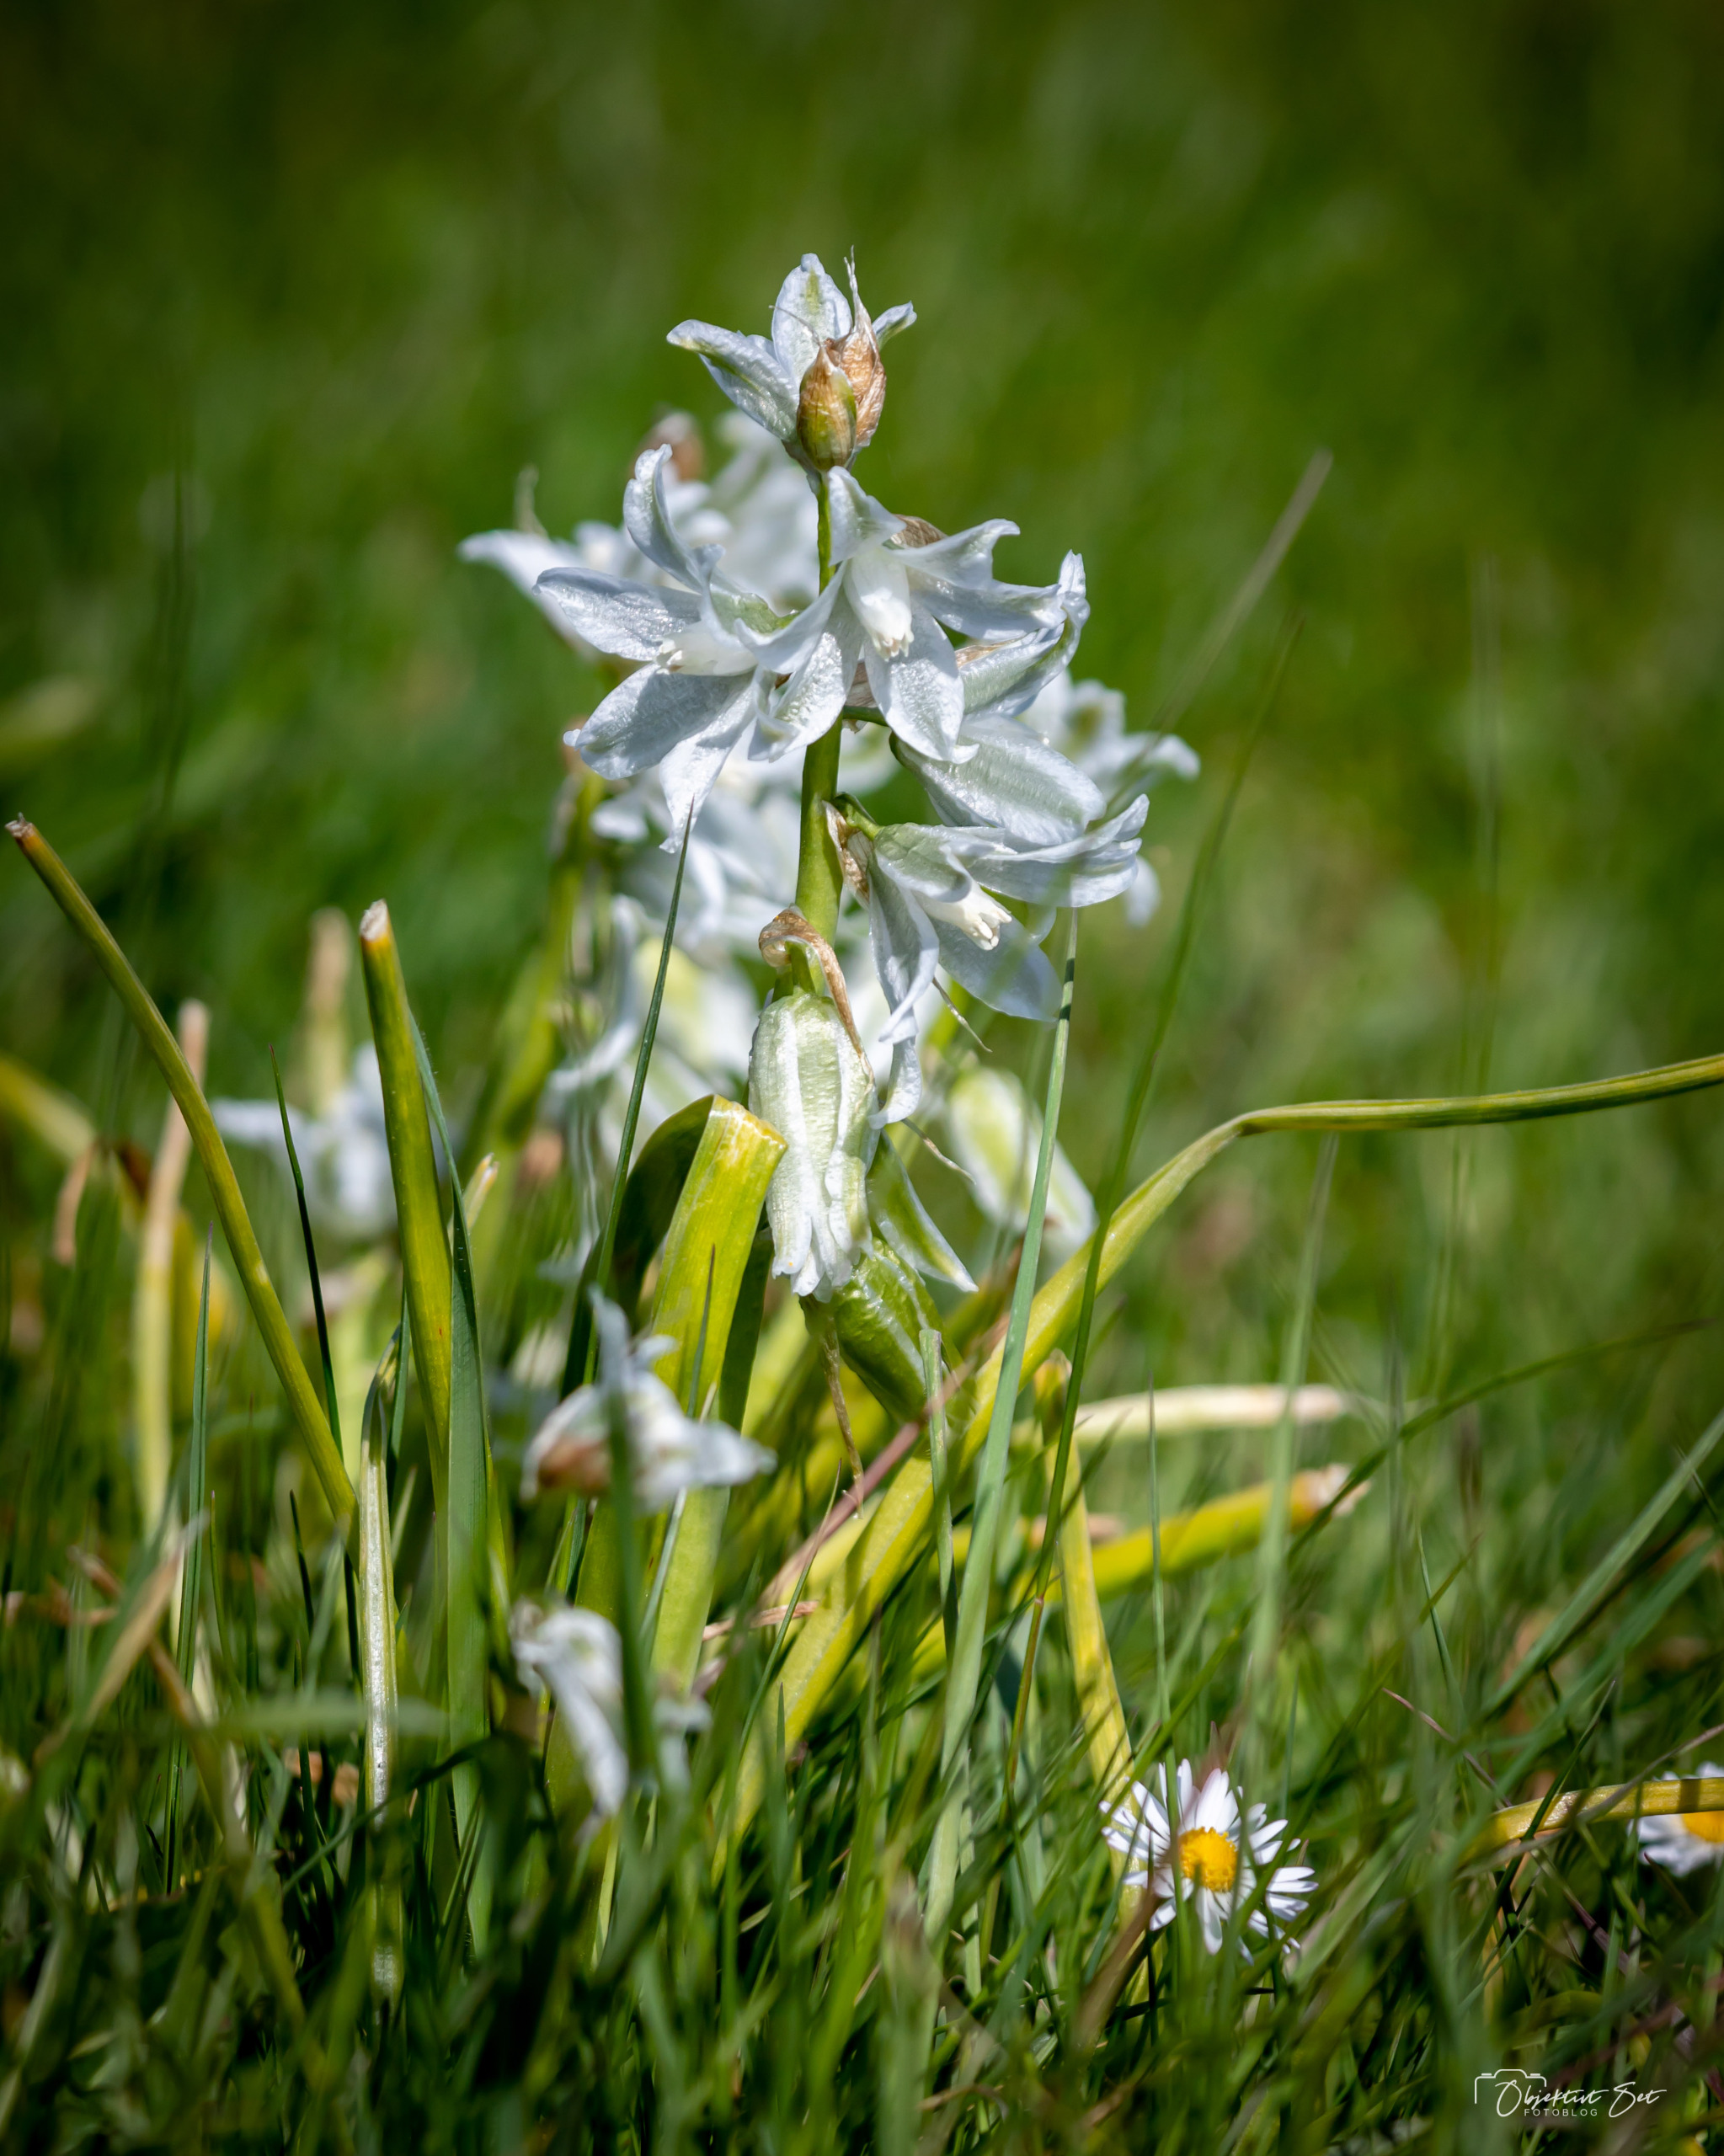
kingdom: Plantae
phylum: Tracheophyta
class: Liliopsida
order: Asparagales
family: Asparagaceae
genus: Ornithogalum
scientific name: Ornithogalum nutans
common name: Nikkende fuglemælk
